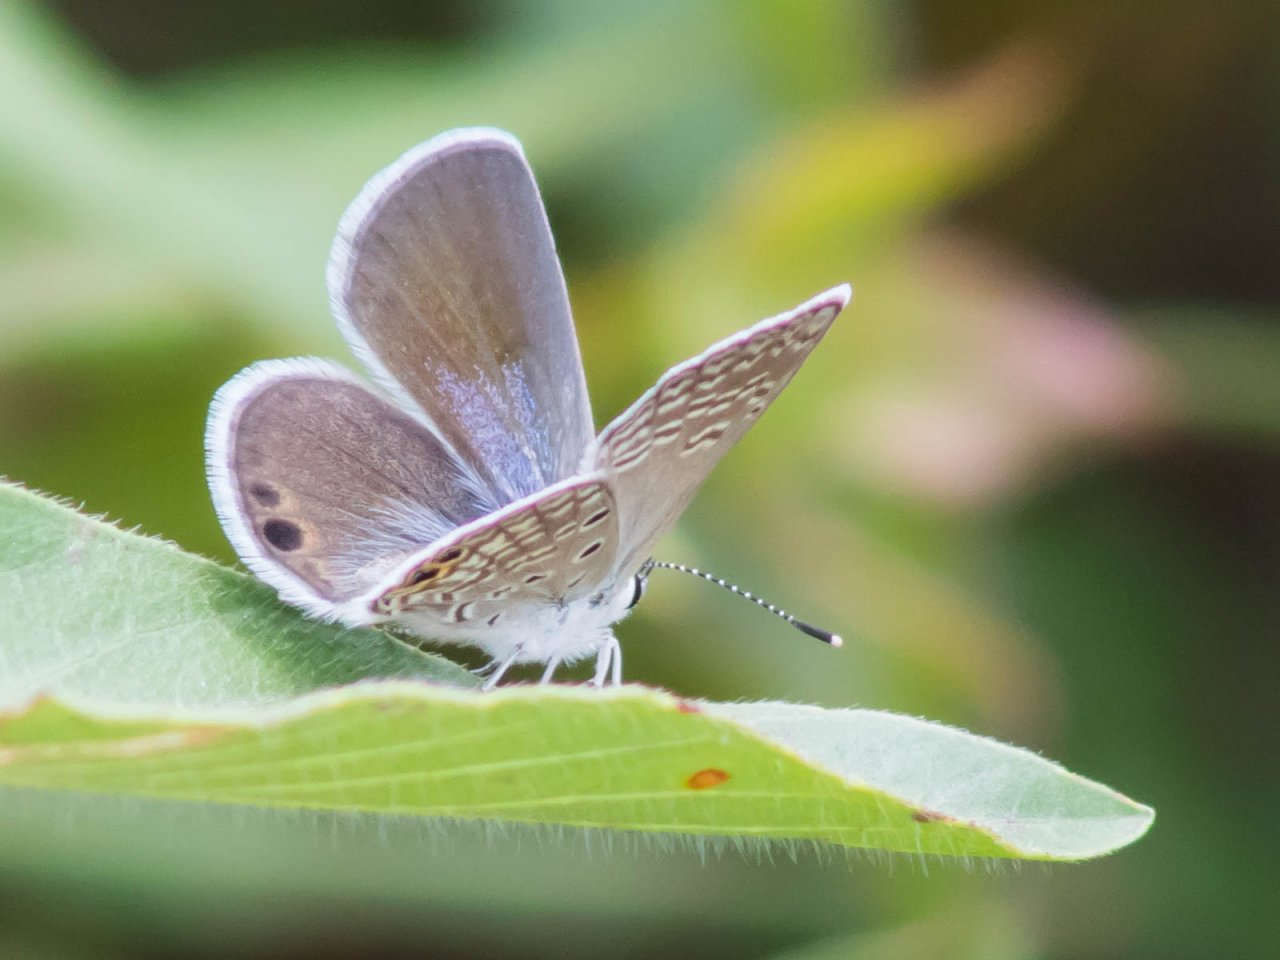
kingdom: Animalia
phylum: Arthropoda
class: Insecta
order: Lepidoptera
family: Lycaenidae
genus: Hemiargus
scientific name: Hemiargus ceraunus
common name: Ceraunus Blue
